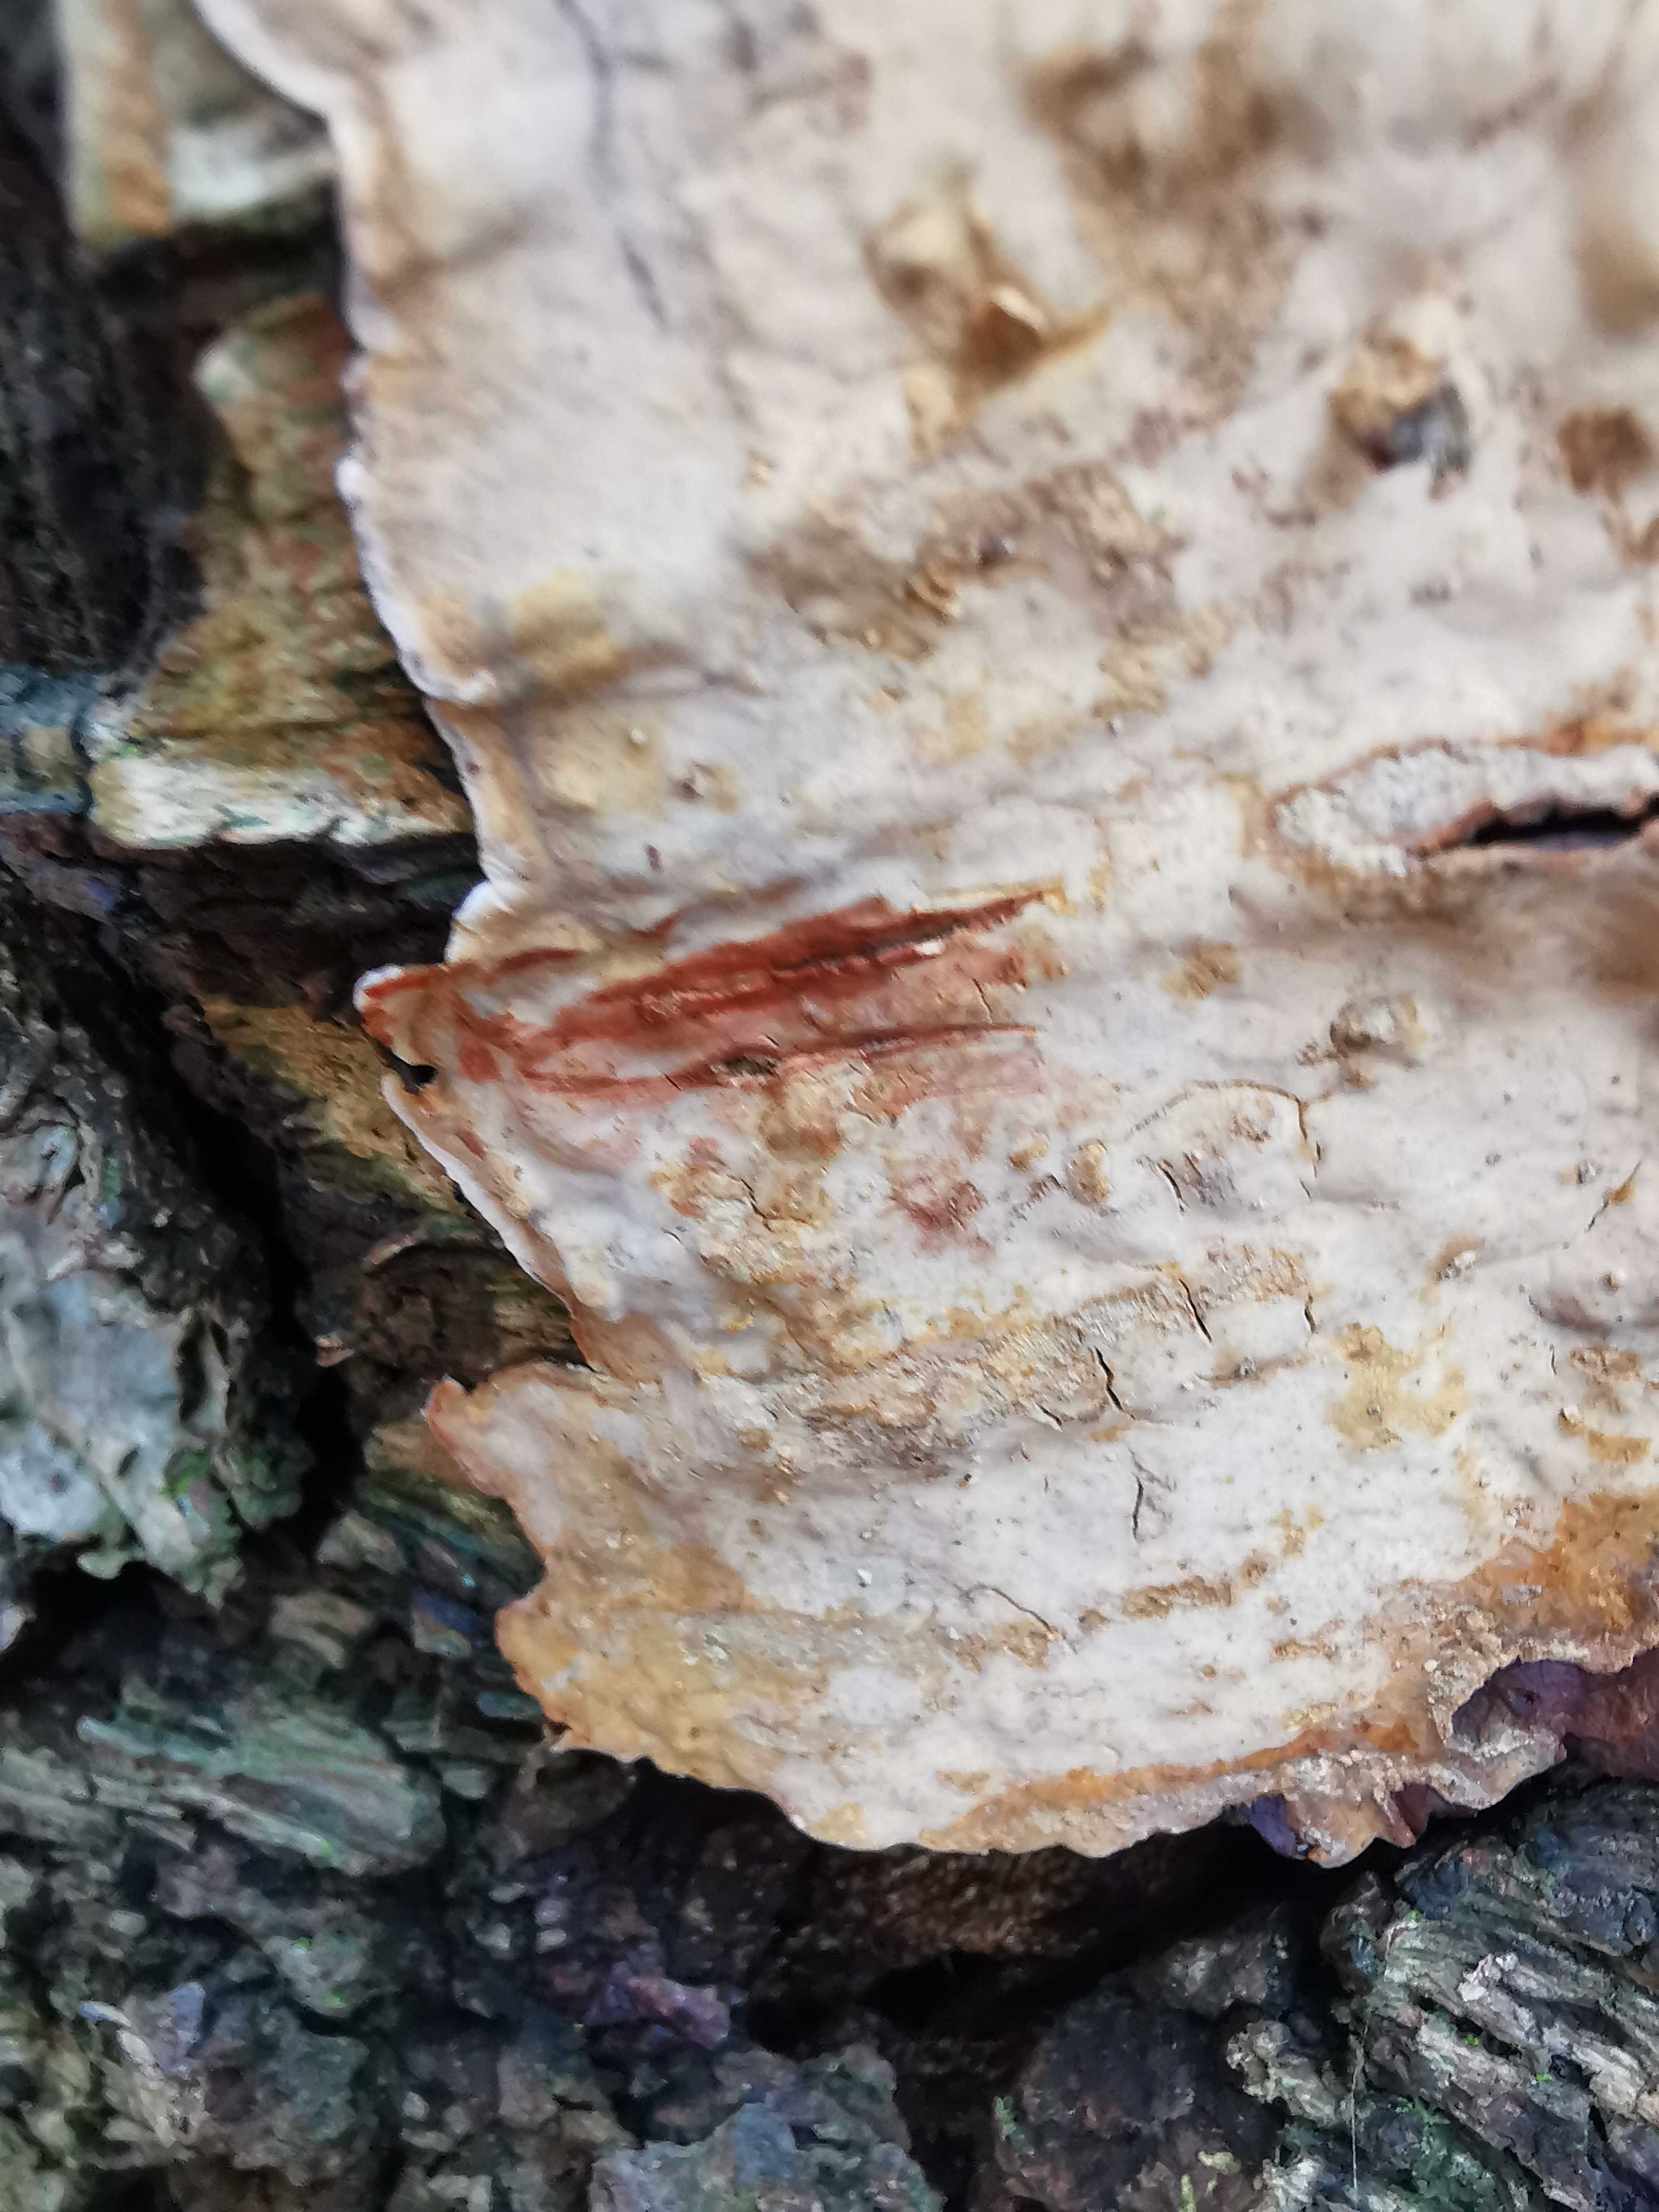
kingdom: Fungi
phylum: Basidiomycota
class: Agaricomycetes
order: Russulales
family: Stereaceae
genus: Stereum
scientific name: Stereum rugosum
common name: rynket lædersvamp
